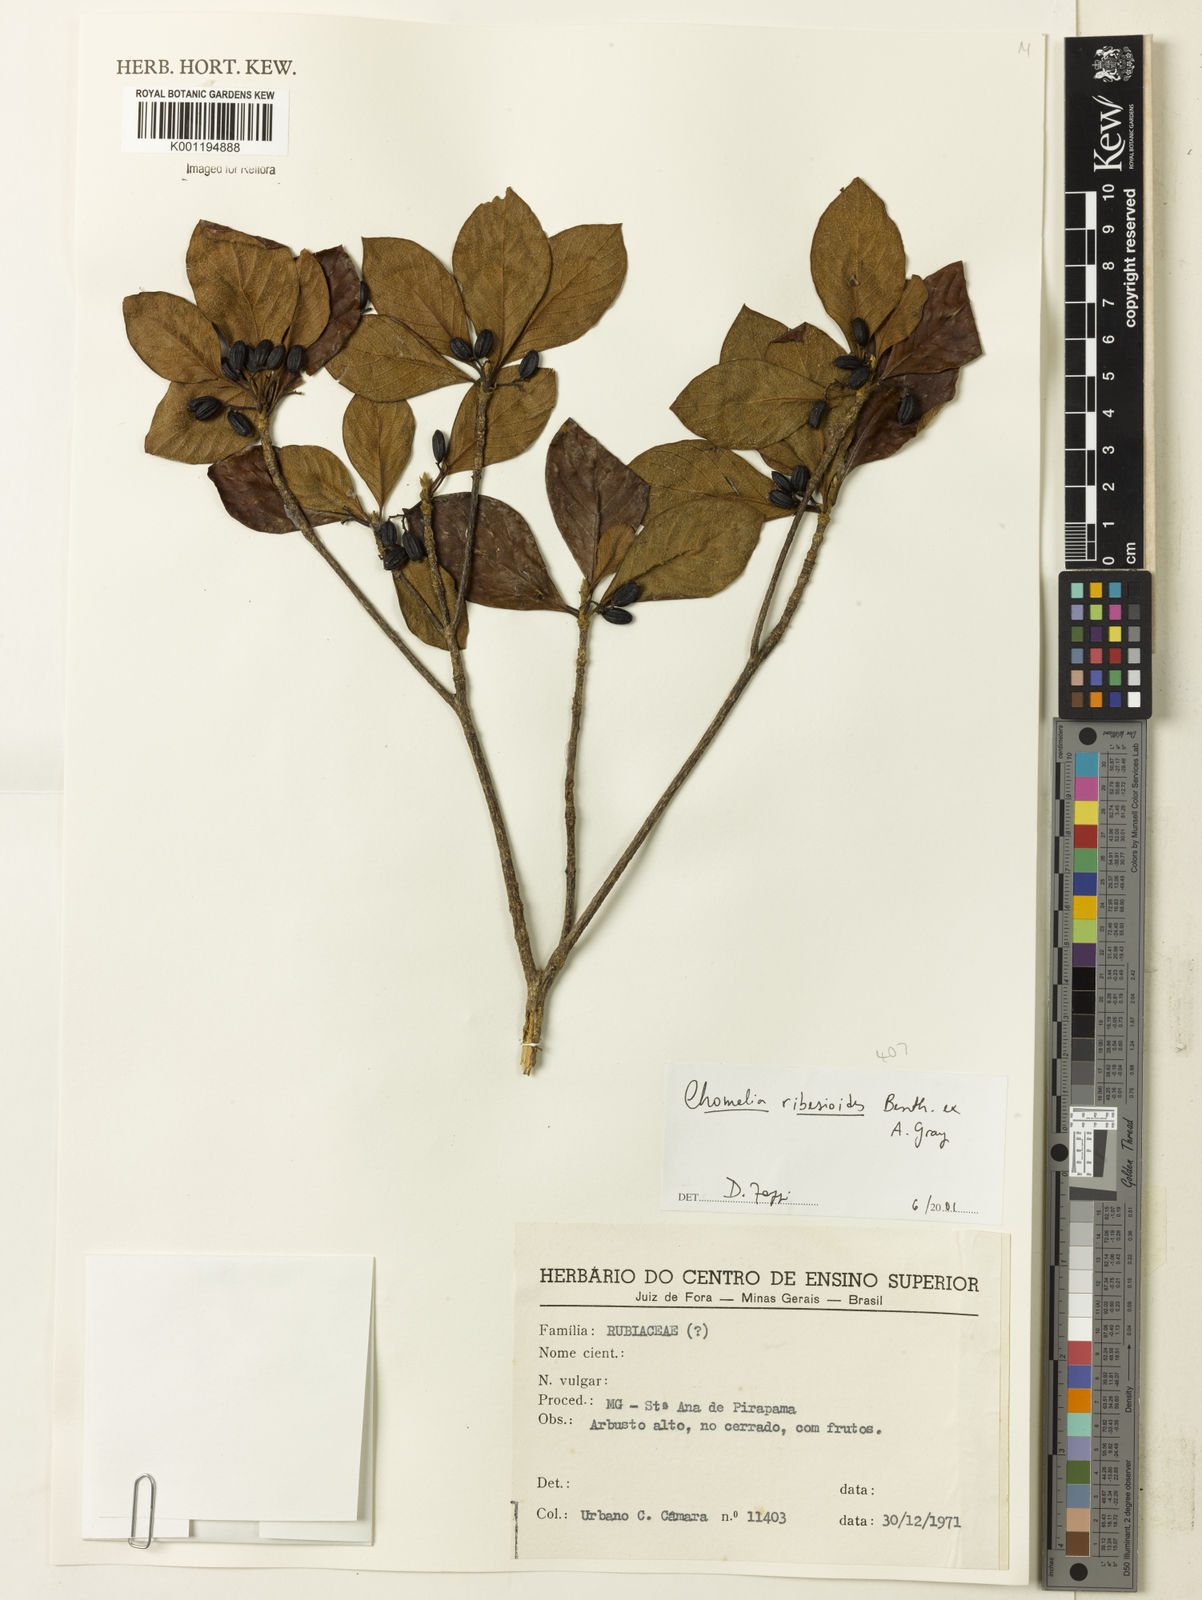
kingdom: Plantae
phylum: Tracheophyta
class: Magnoliopsida
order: Gentianales
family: Rubiaceae
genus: Chomelia
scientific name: Chomelia ribesioides
